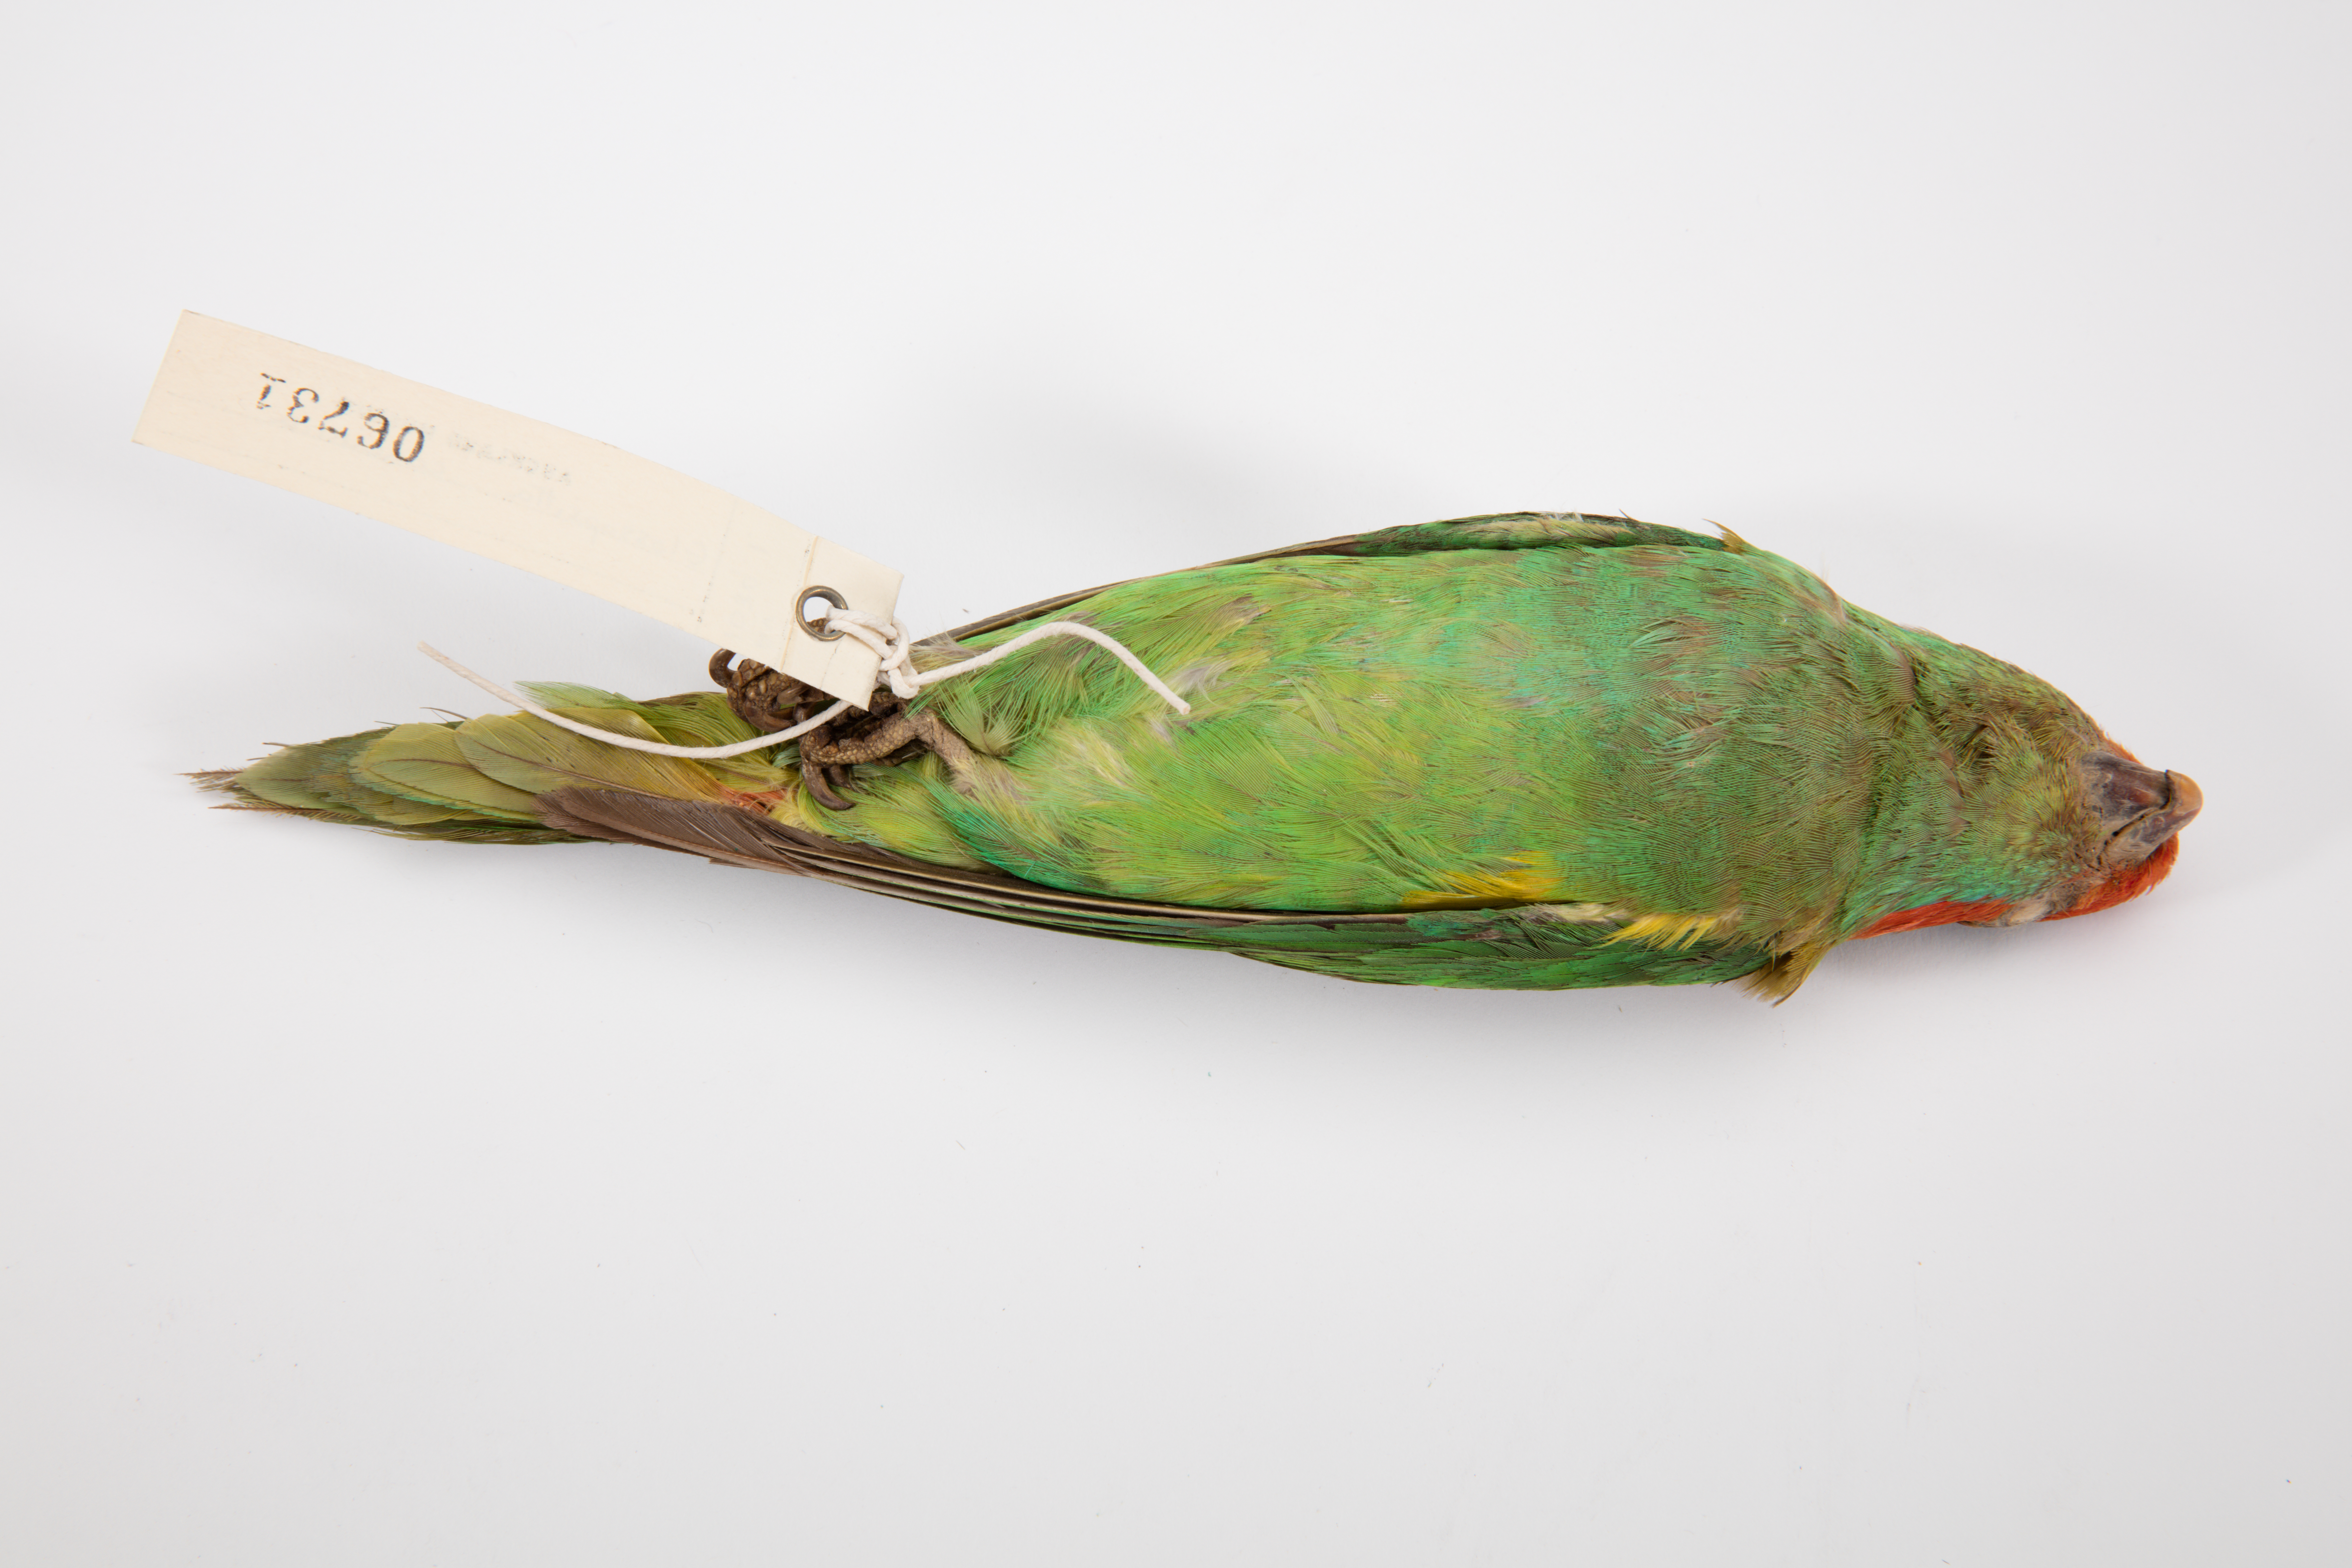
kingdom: Animalia
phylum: Chordata
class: Aves
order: Psittaciformes
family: Psittacidae
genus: Glossopsitta
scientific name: Glossopsitta concinna
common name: Musk lorikeet
